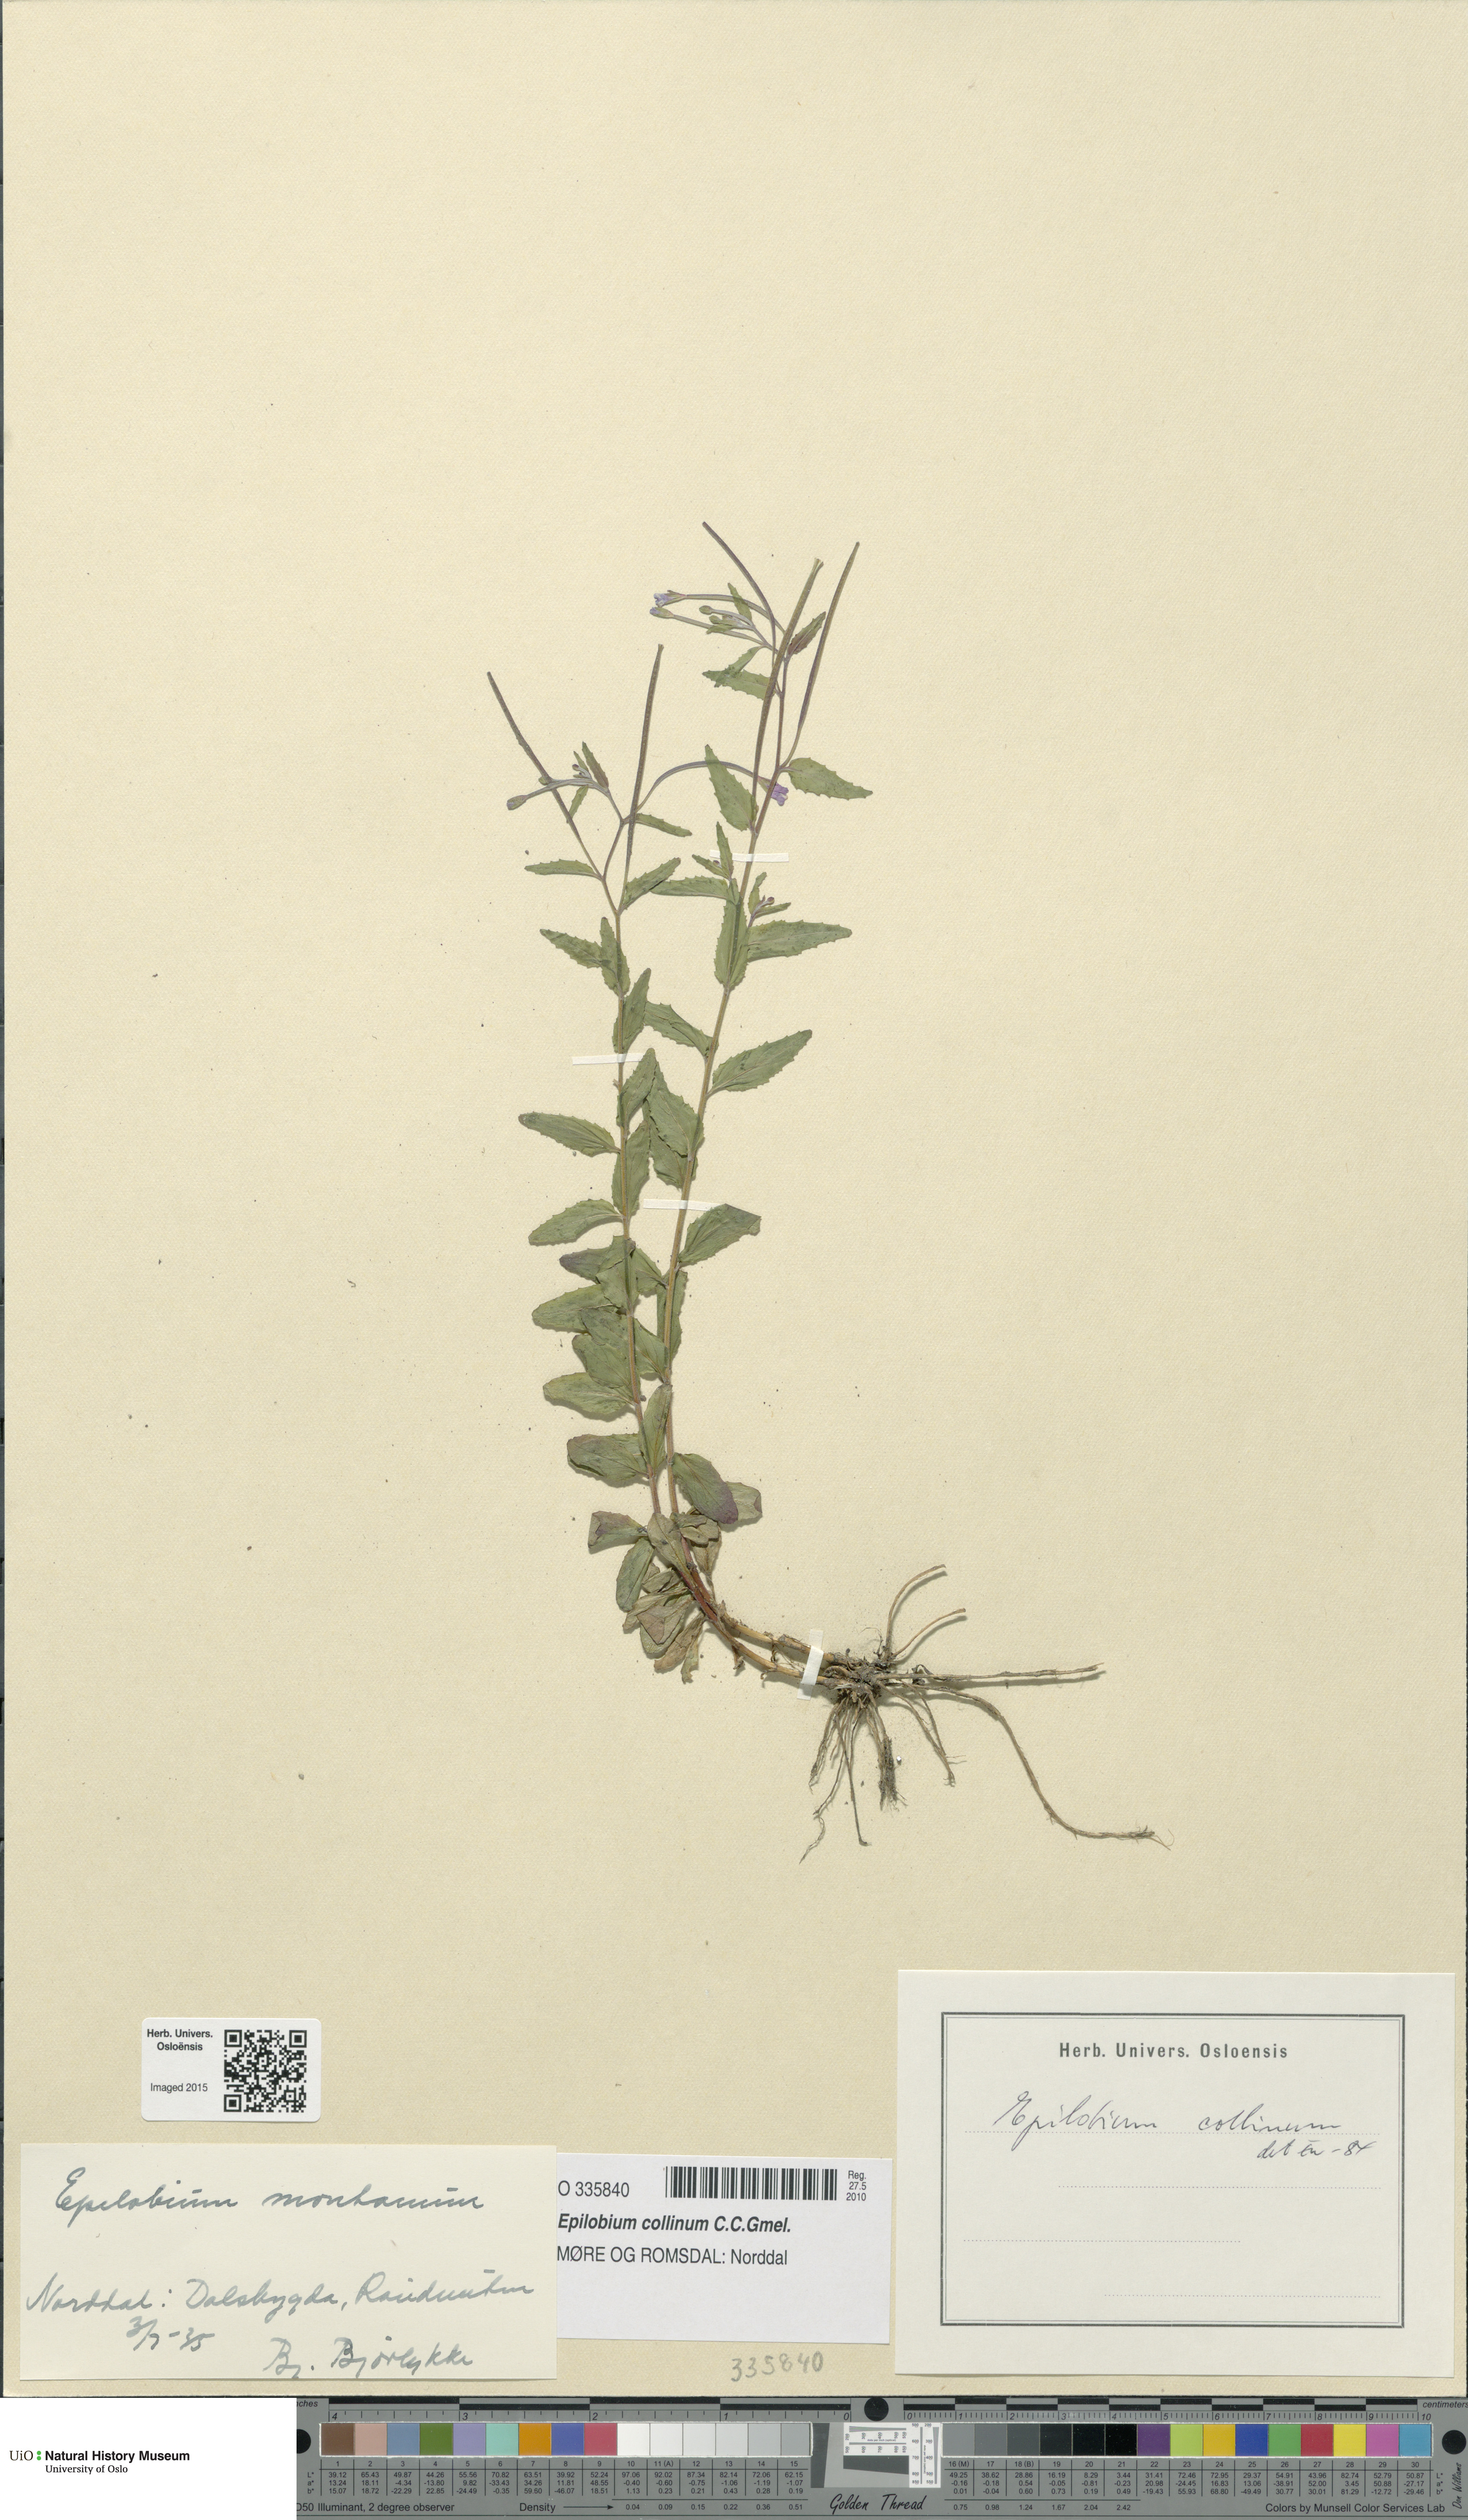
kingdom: Plantae
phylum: Tracheophyta
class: Magnoliopsida
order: Myrtales
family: Onagraceae
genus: Epilobium
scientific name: Epilobium collinum
